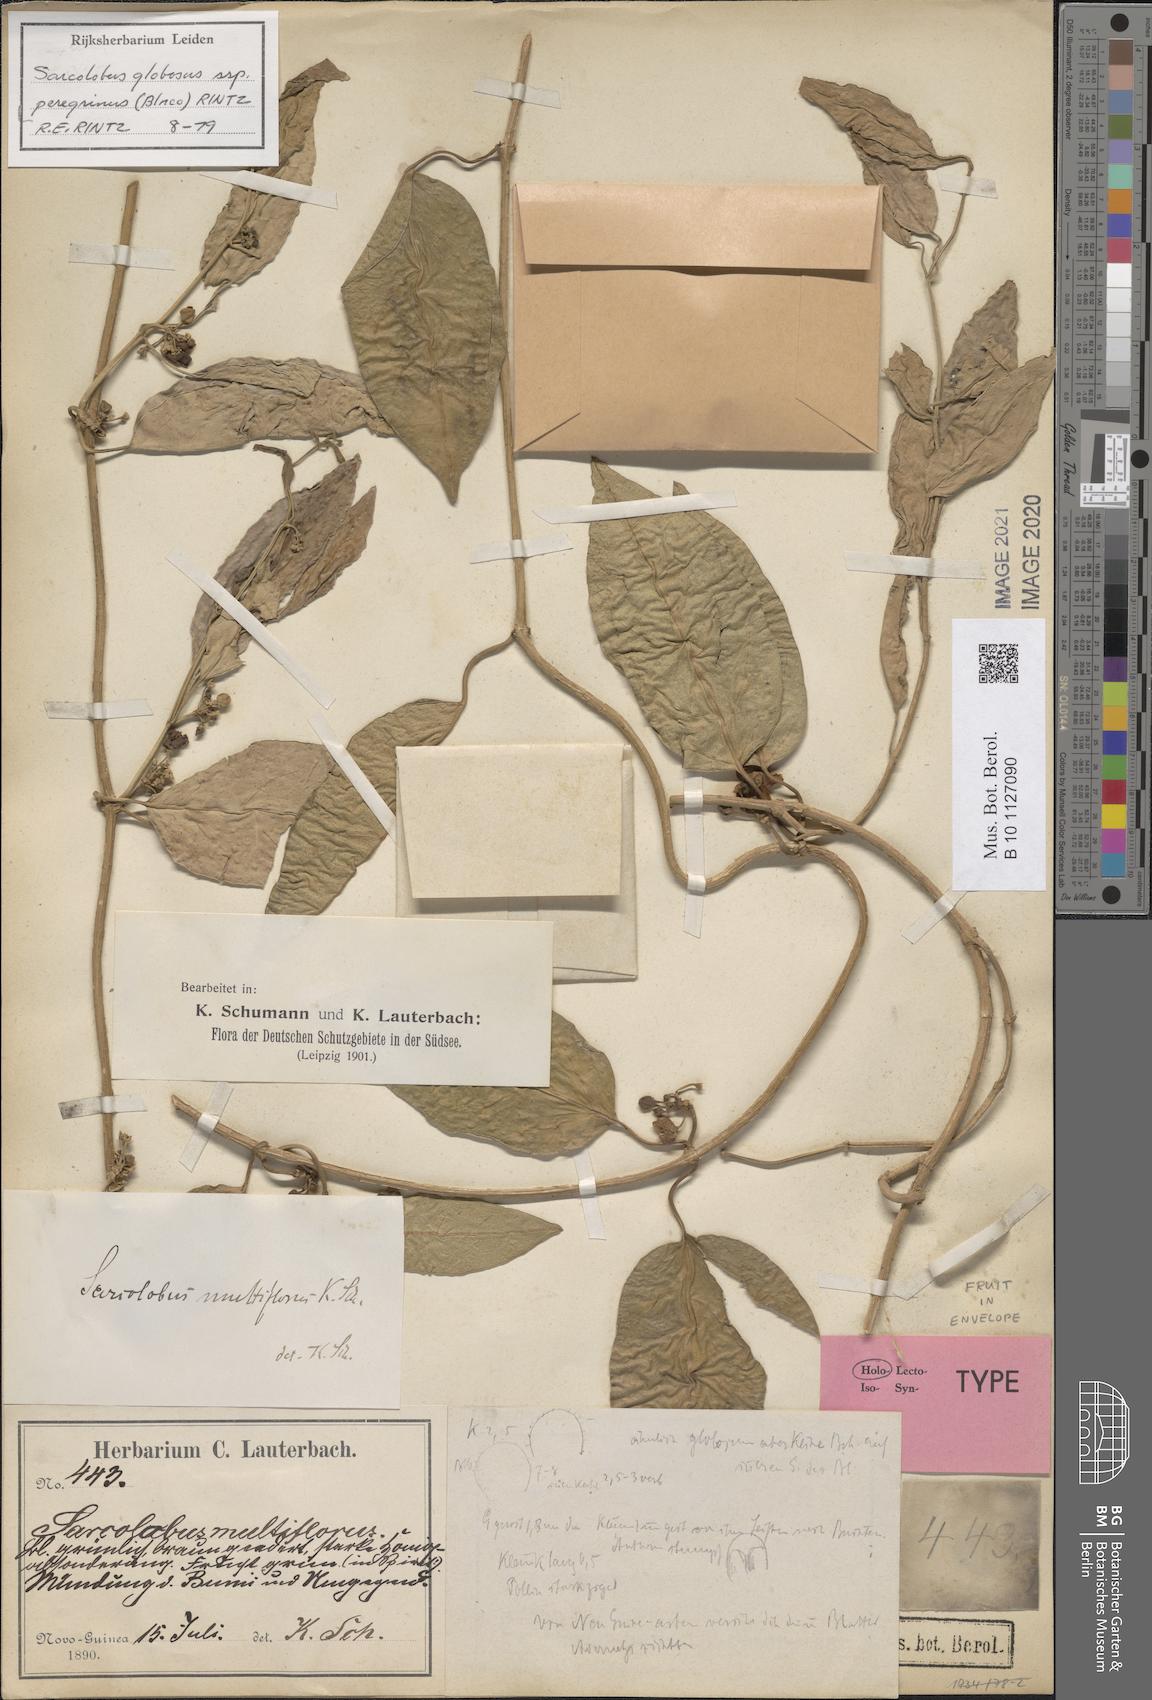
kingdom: Plantae
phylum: Tracheophyta
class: Magnoliopsida
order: Gentianales
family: Apocynaceae
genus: Sarcolobus
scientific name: Sarcolobus globosus
